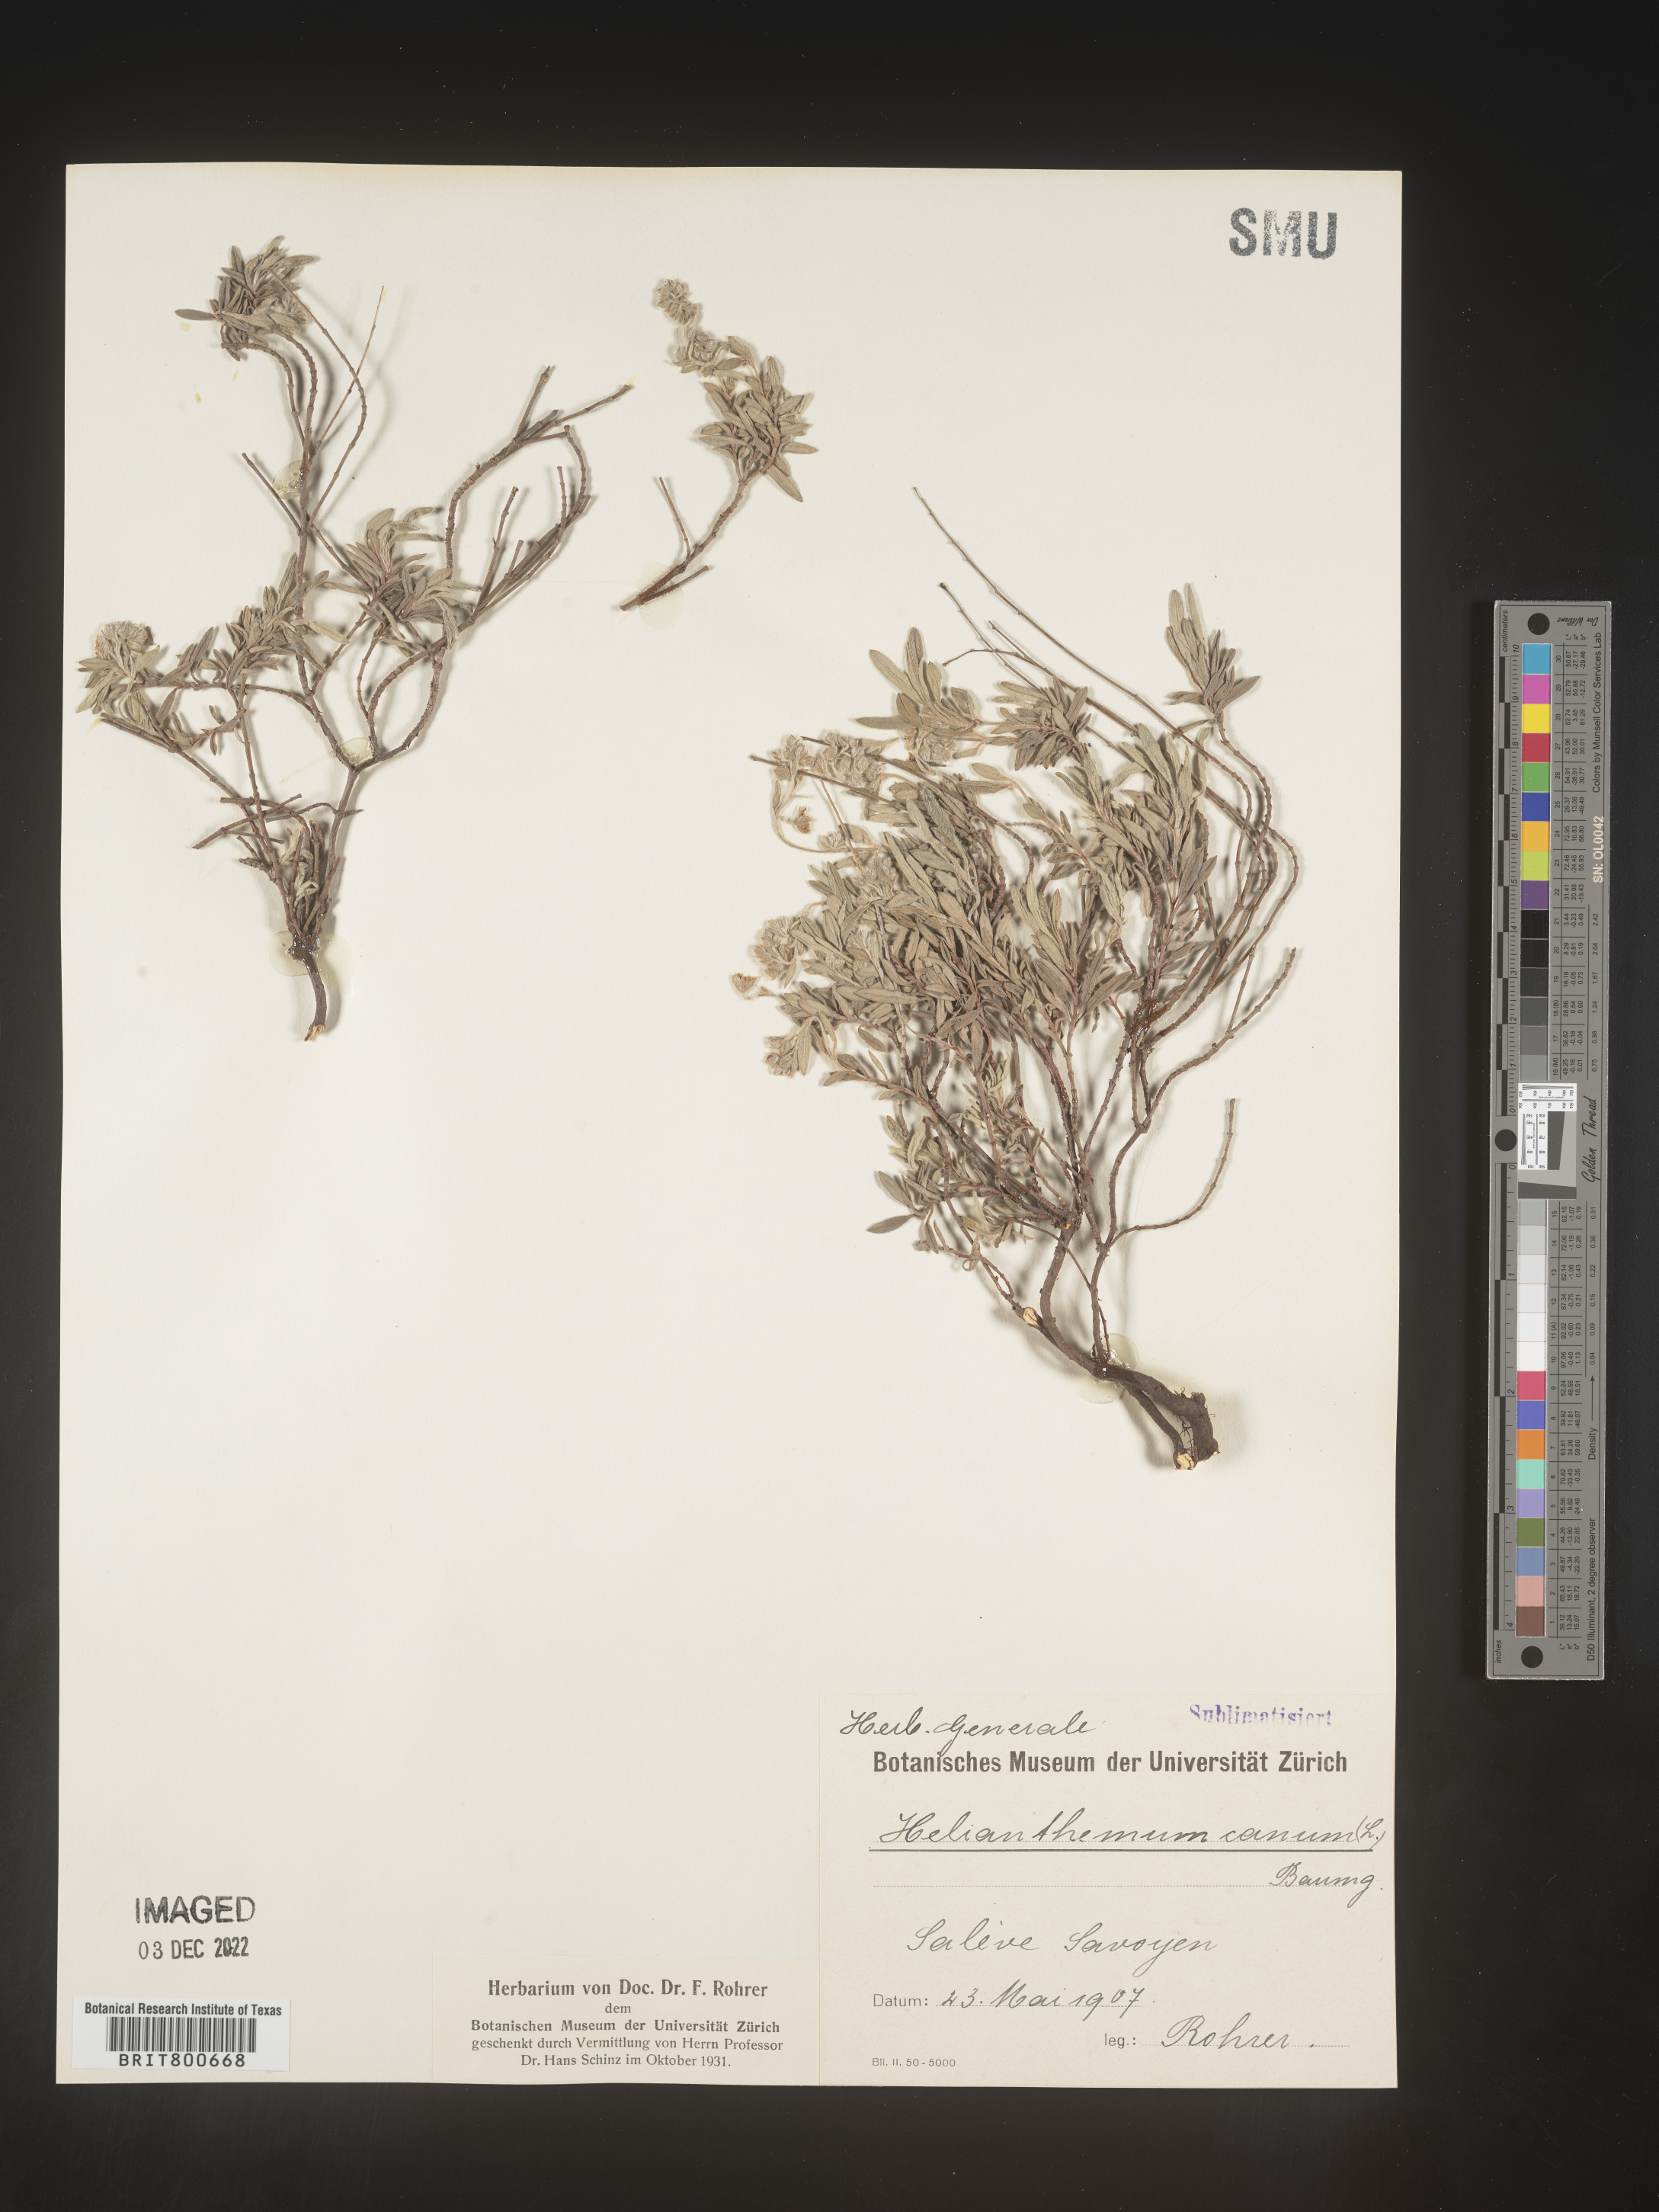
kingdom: Plantae
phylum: Tracheophyta
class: Magnoliopsida
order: Malvales
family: Cistaceae
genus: Helianthemum
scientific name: Helianthemum
